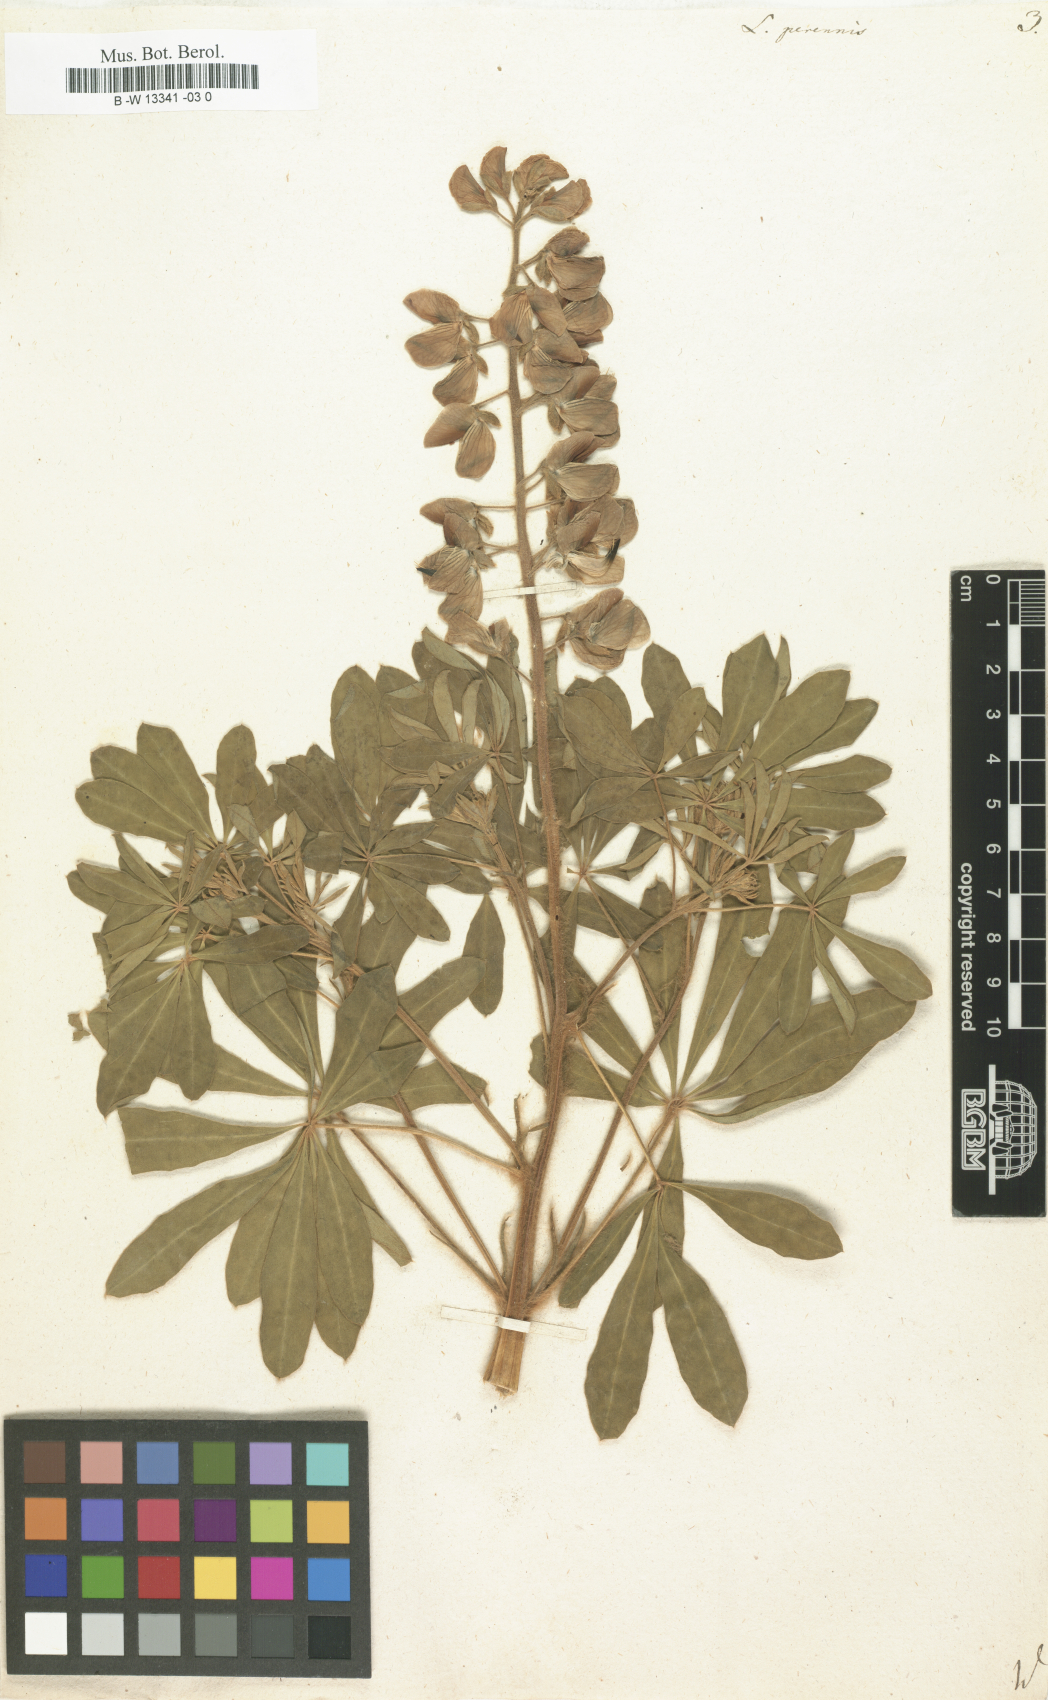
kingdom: Plantae
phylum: Tracheophyta
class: Magnoliopsida
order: Fabales
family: Fabaceae
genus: Lupinus
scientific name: Lupinus perennis
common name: Sundial lupine
